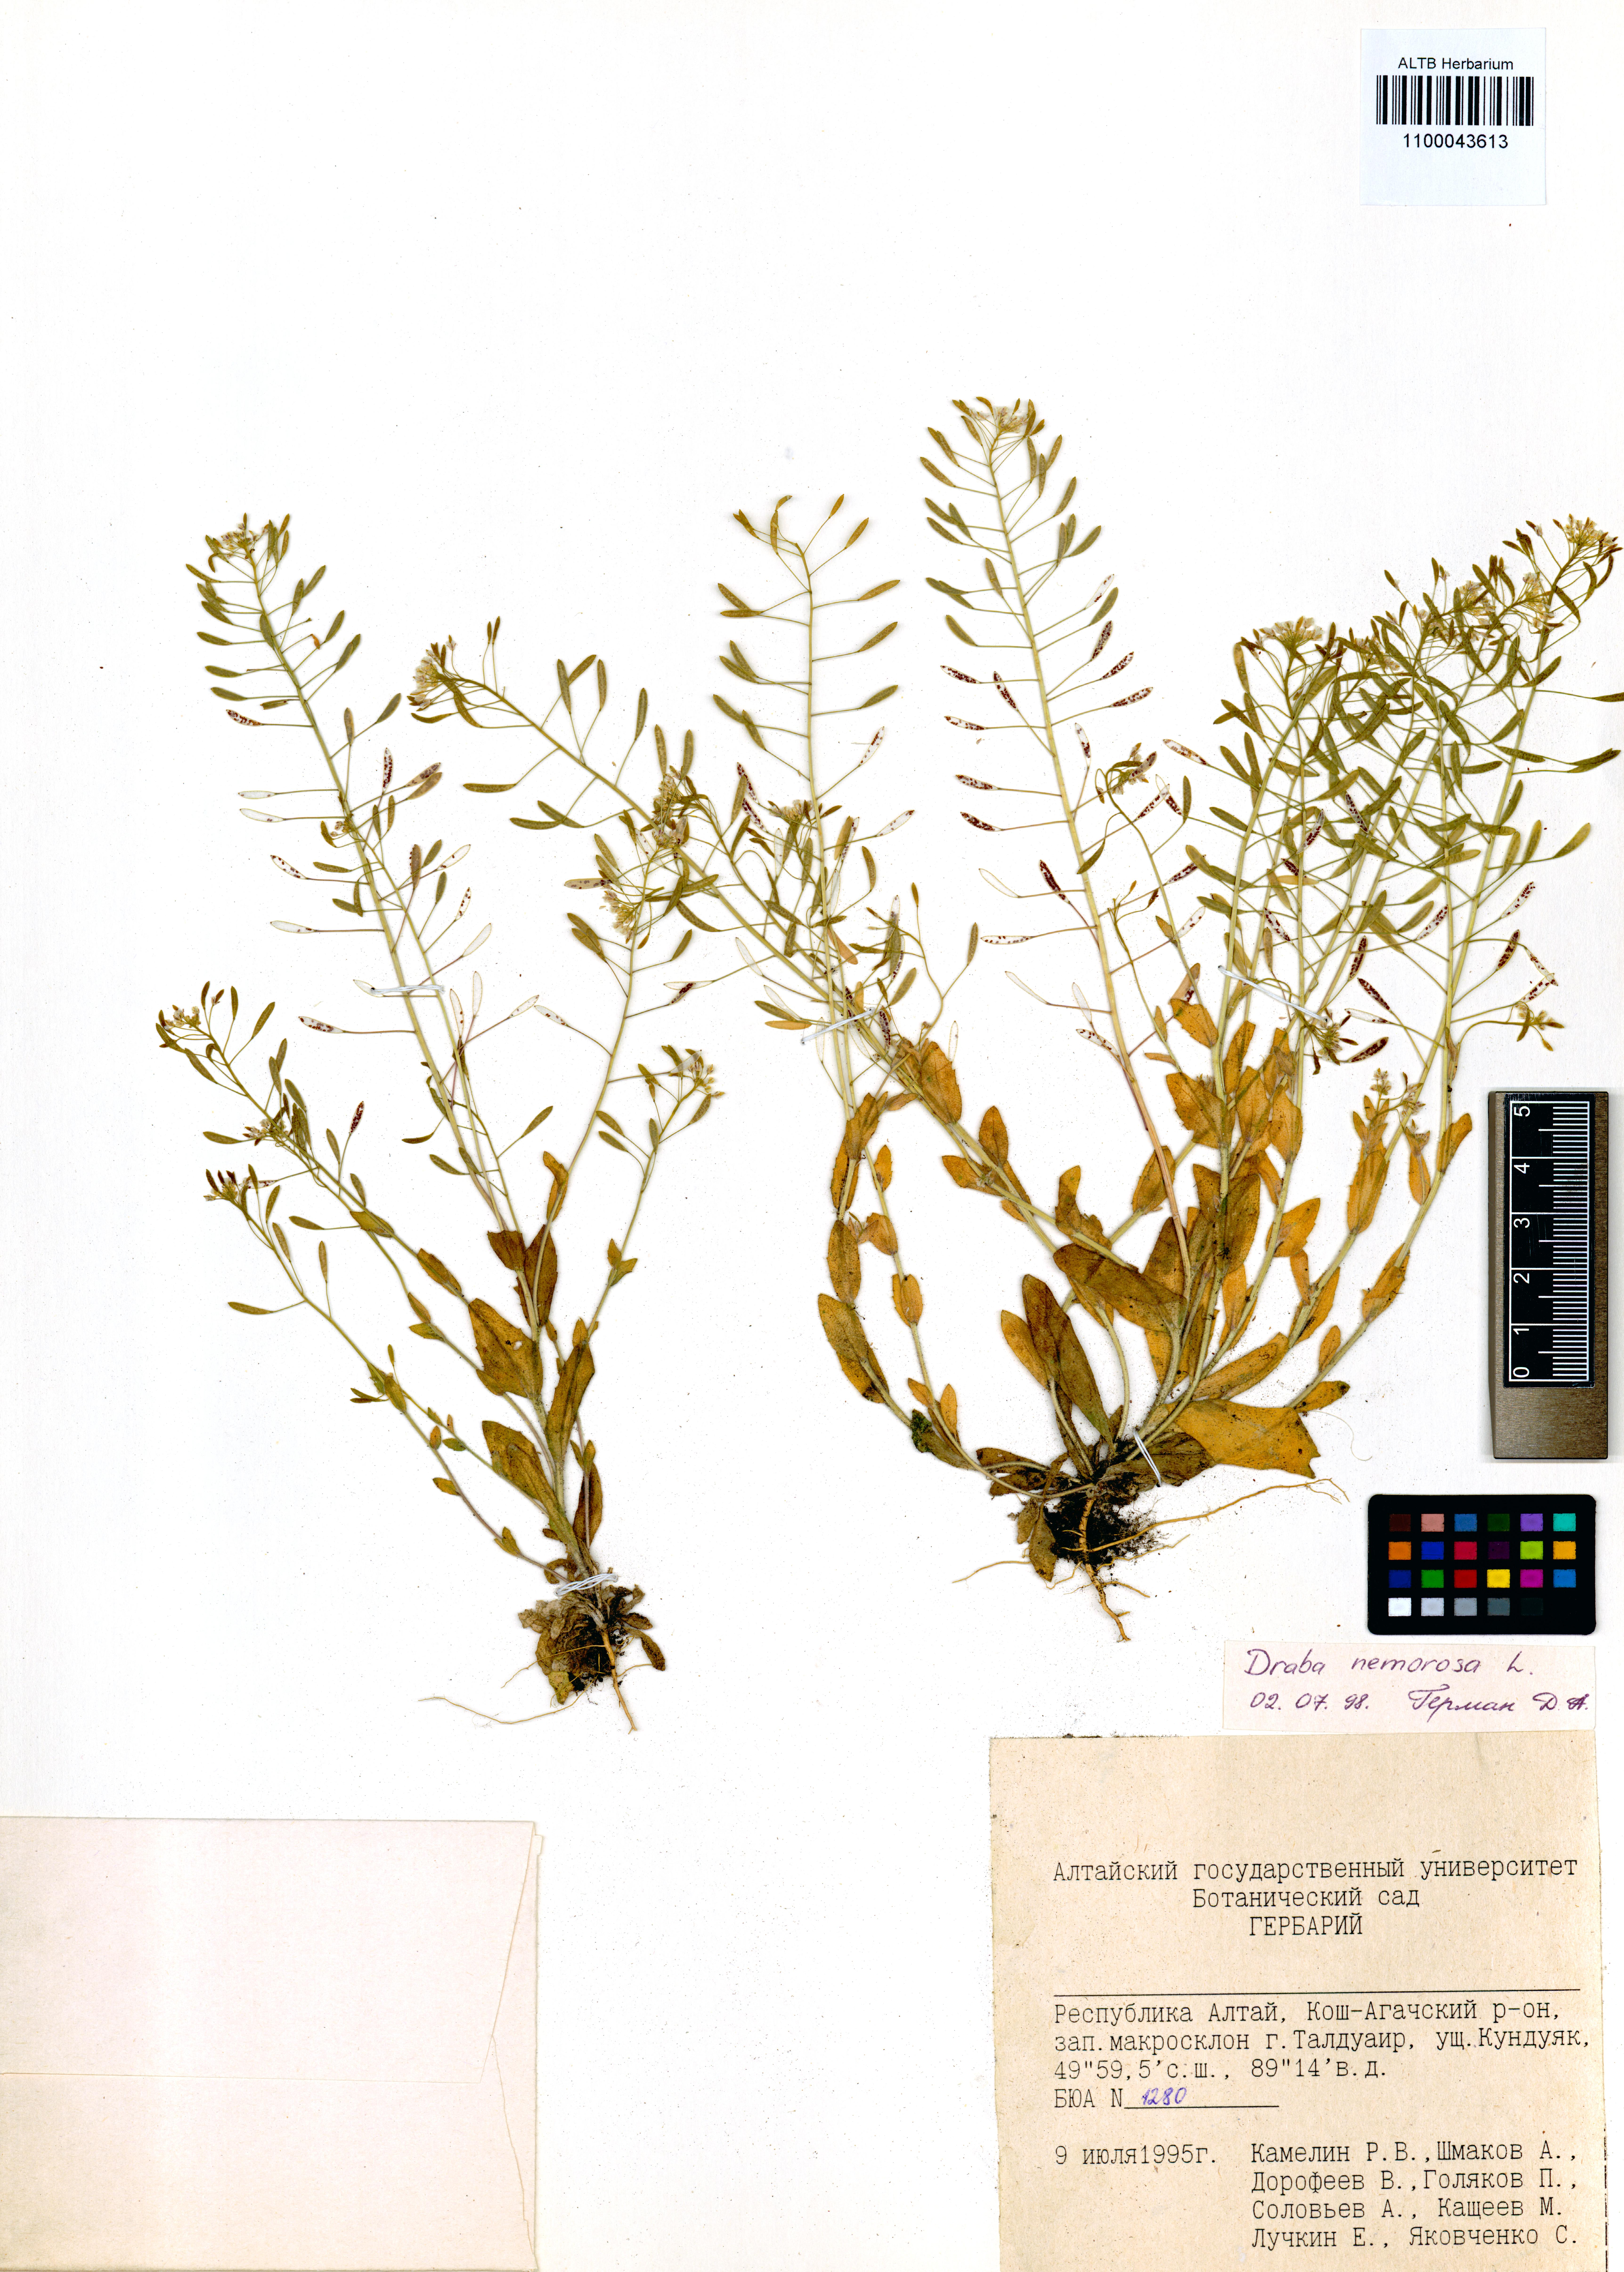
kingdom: Plantae
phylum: Tracheophyta
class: Magnoliopsida
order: Brassicales
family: Brassicaceae
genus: Draba
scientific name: Draba nemorosa
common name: Wood whitlow-grass
